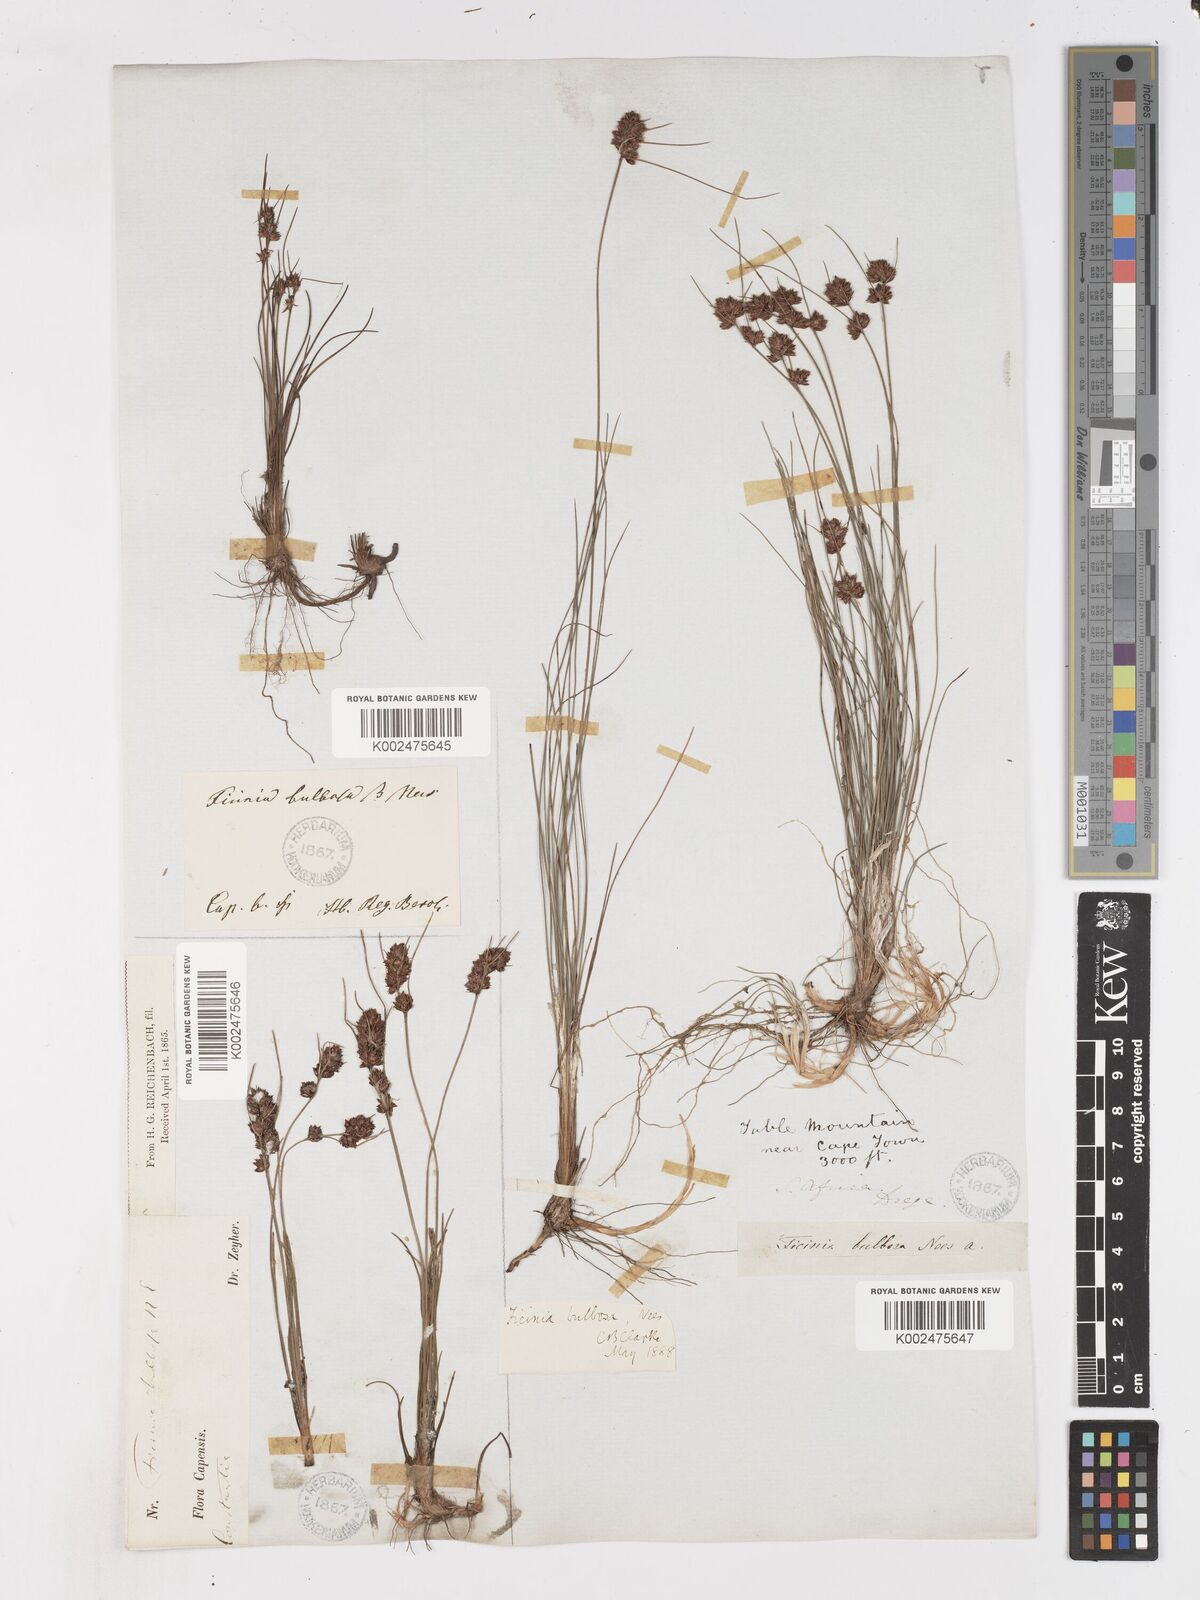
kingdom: Plantae
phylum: Tracheophyta
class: Liliopsida
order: Poales
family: Cyperaceae
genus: Ficinia
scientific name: Ficinia bulbosa
